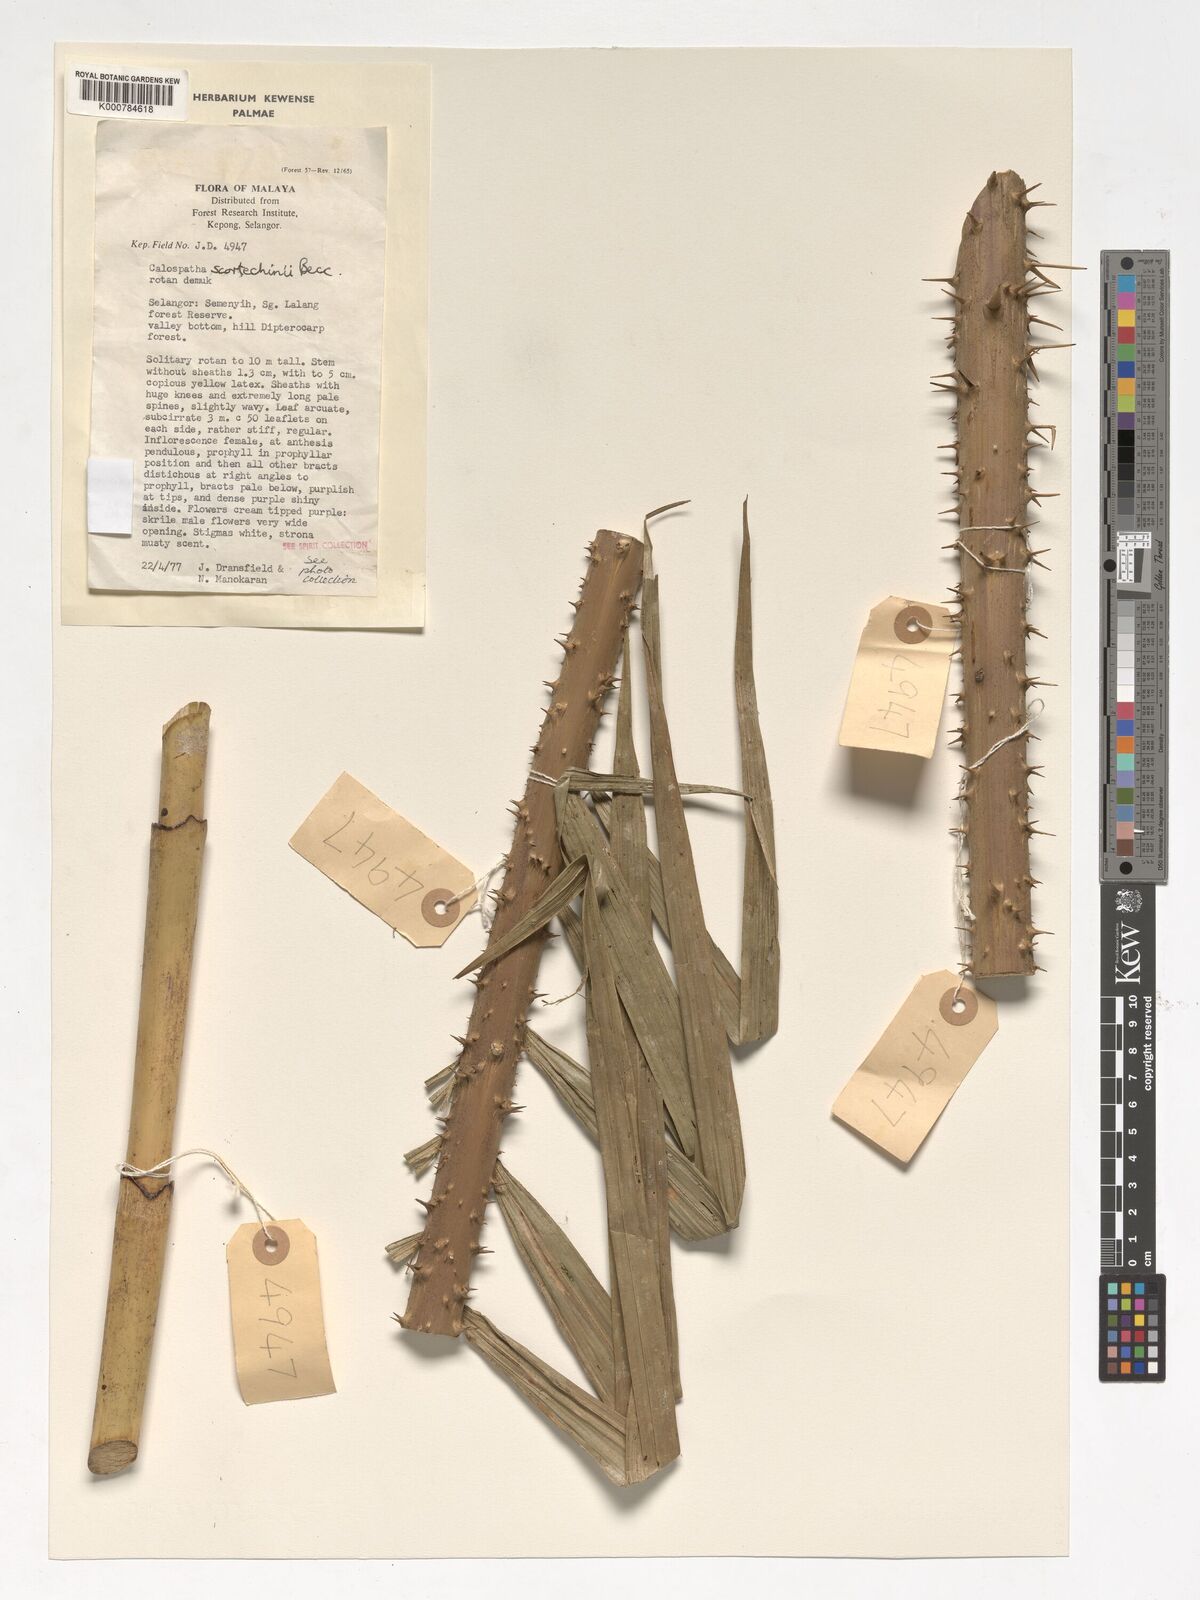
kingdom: Plantae
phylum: Tracheophyta
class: Liliopsida
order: Arecales
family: Arecaceae
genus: Calamus
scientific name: Calamus calospathus
